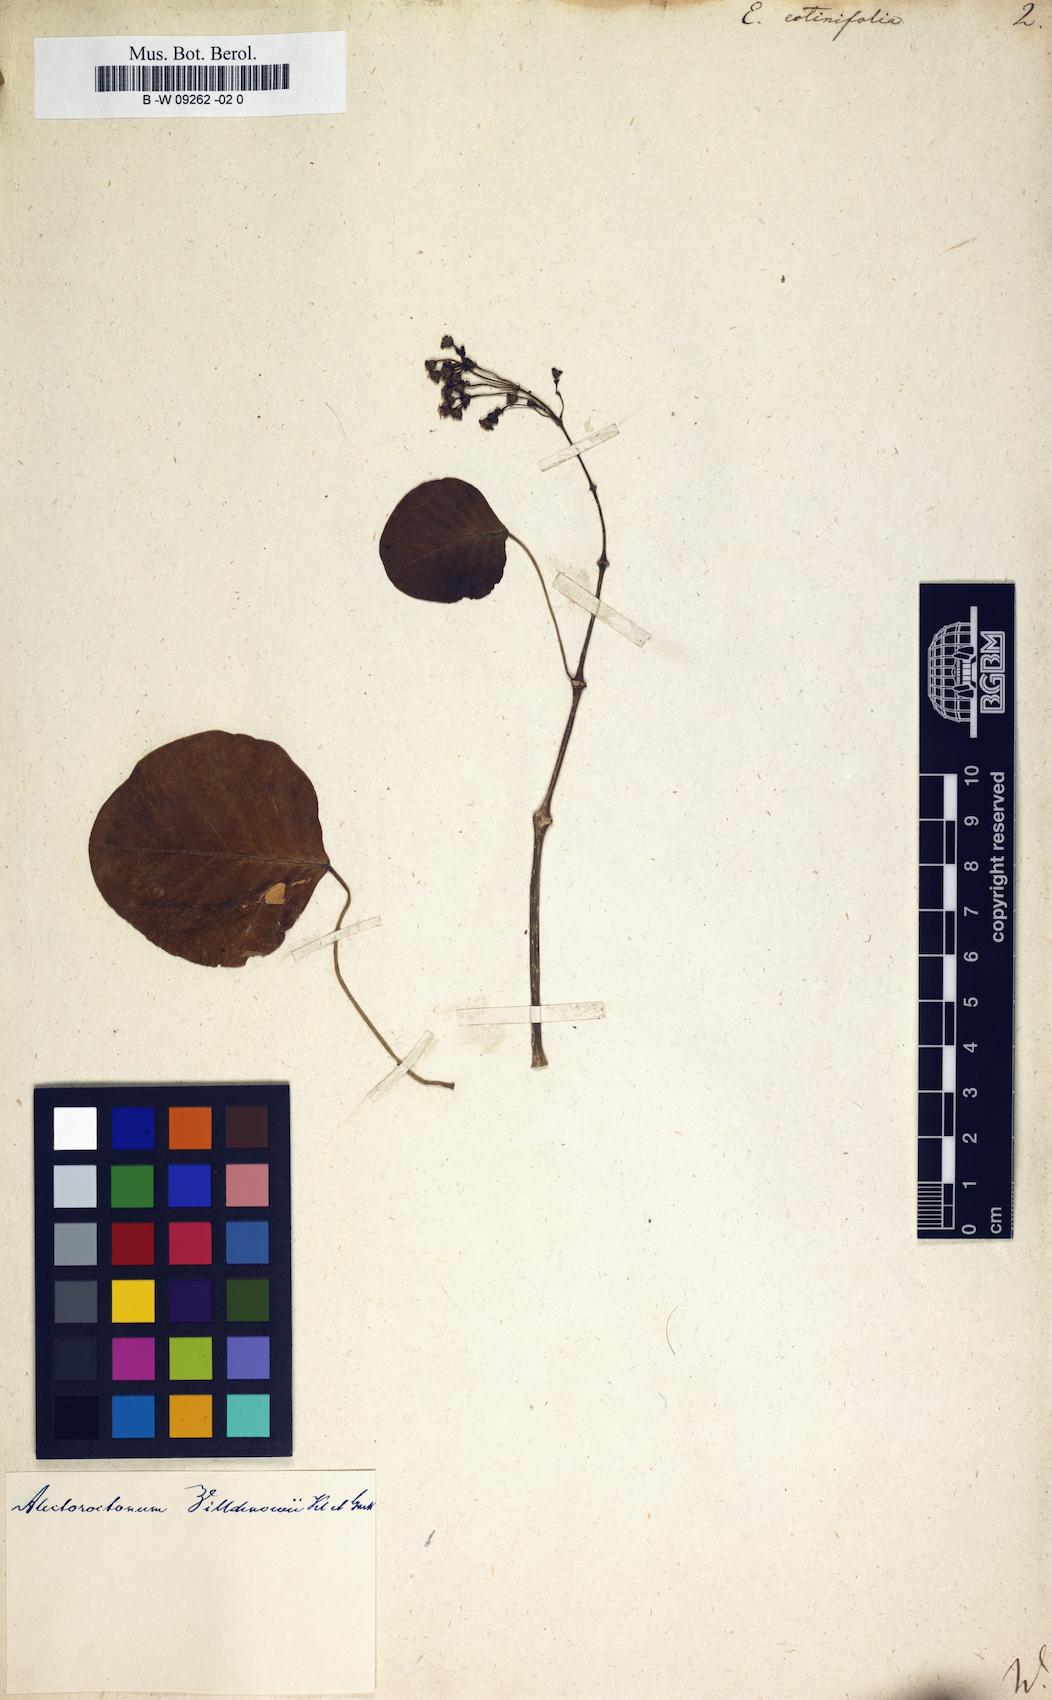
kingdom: Plantae
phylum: Tracheophyta
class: Magnoliopsida
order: Malpighiales
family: Euphorbiaceae
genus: Euphorbia
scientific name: Euphorbia cotinifolia
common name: Tropical smokebush
